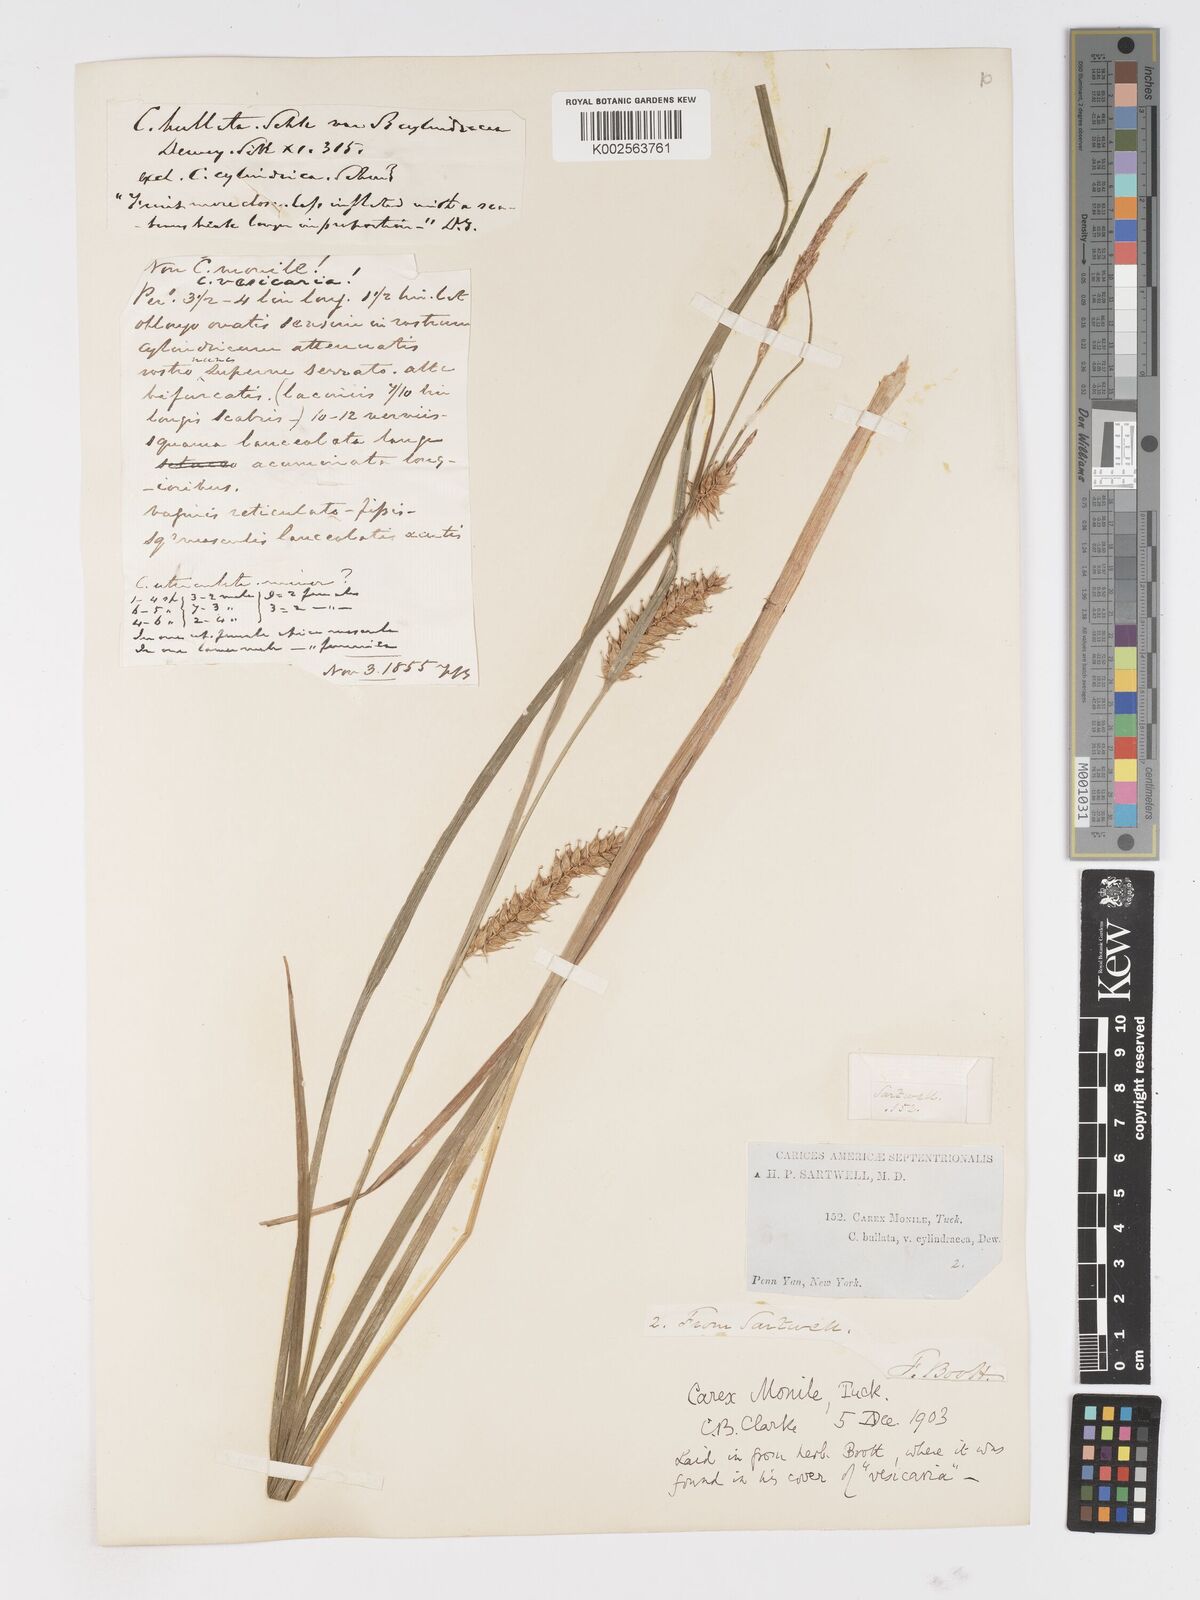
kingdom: Plantae
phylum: Tracheophyta
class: Liliopsida
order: Poales
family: Cyperaceae
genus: Carex
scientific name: Carex vesicaria
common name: Bladder-sedge
